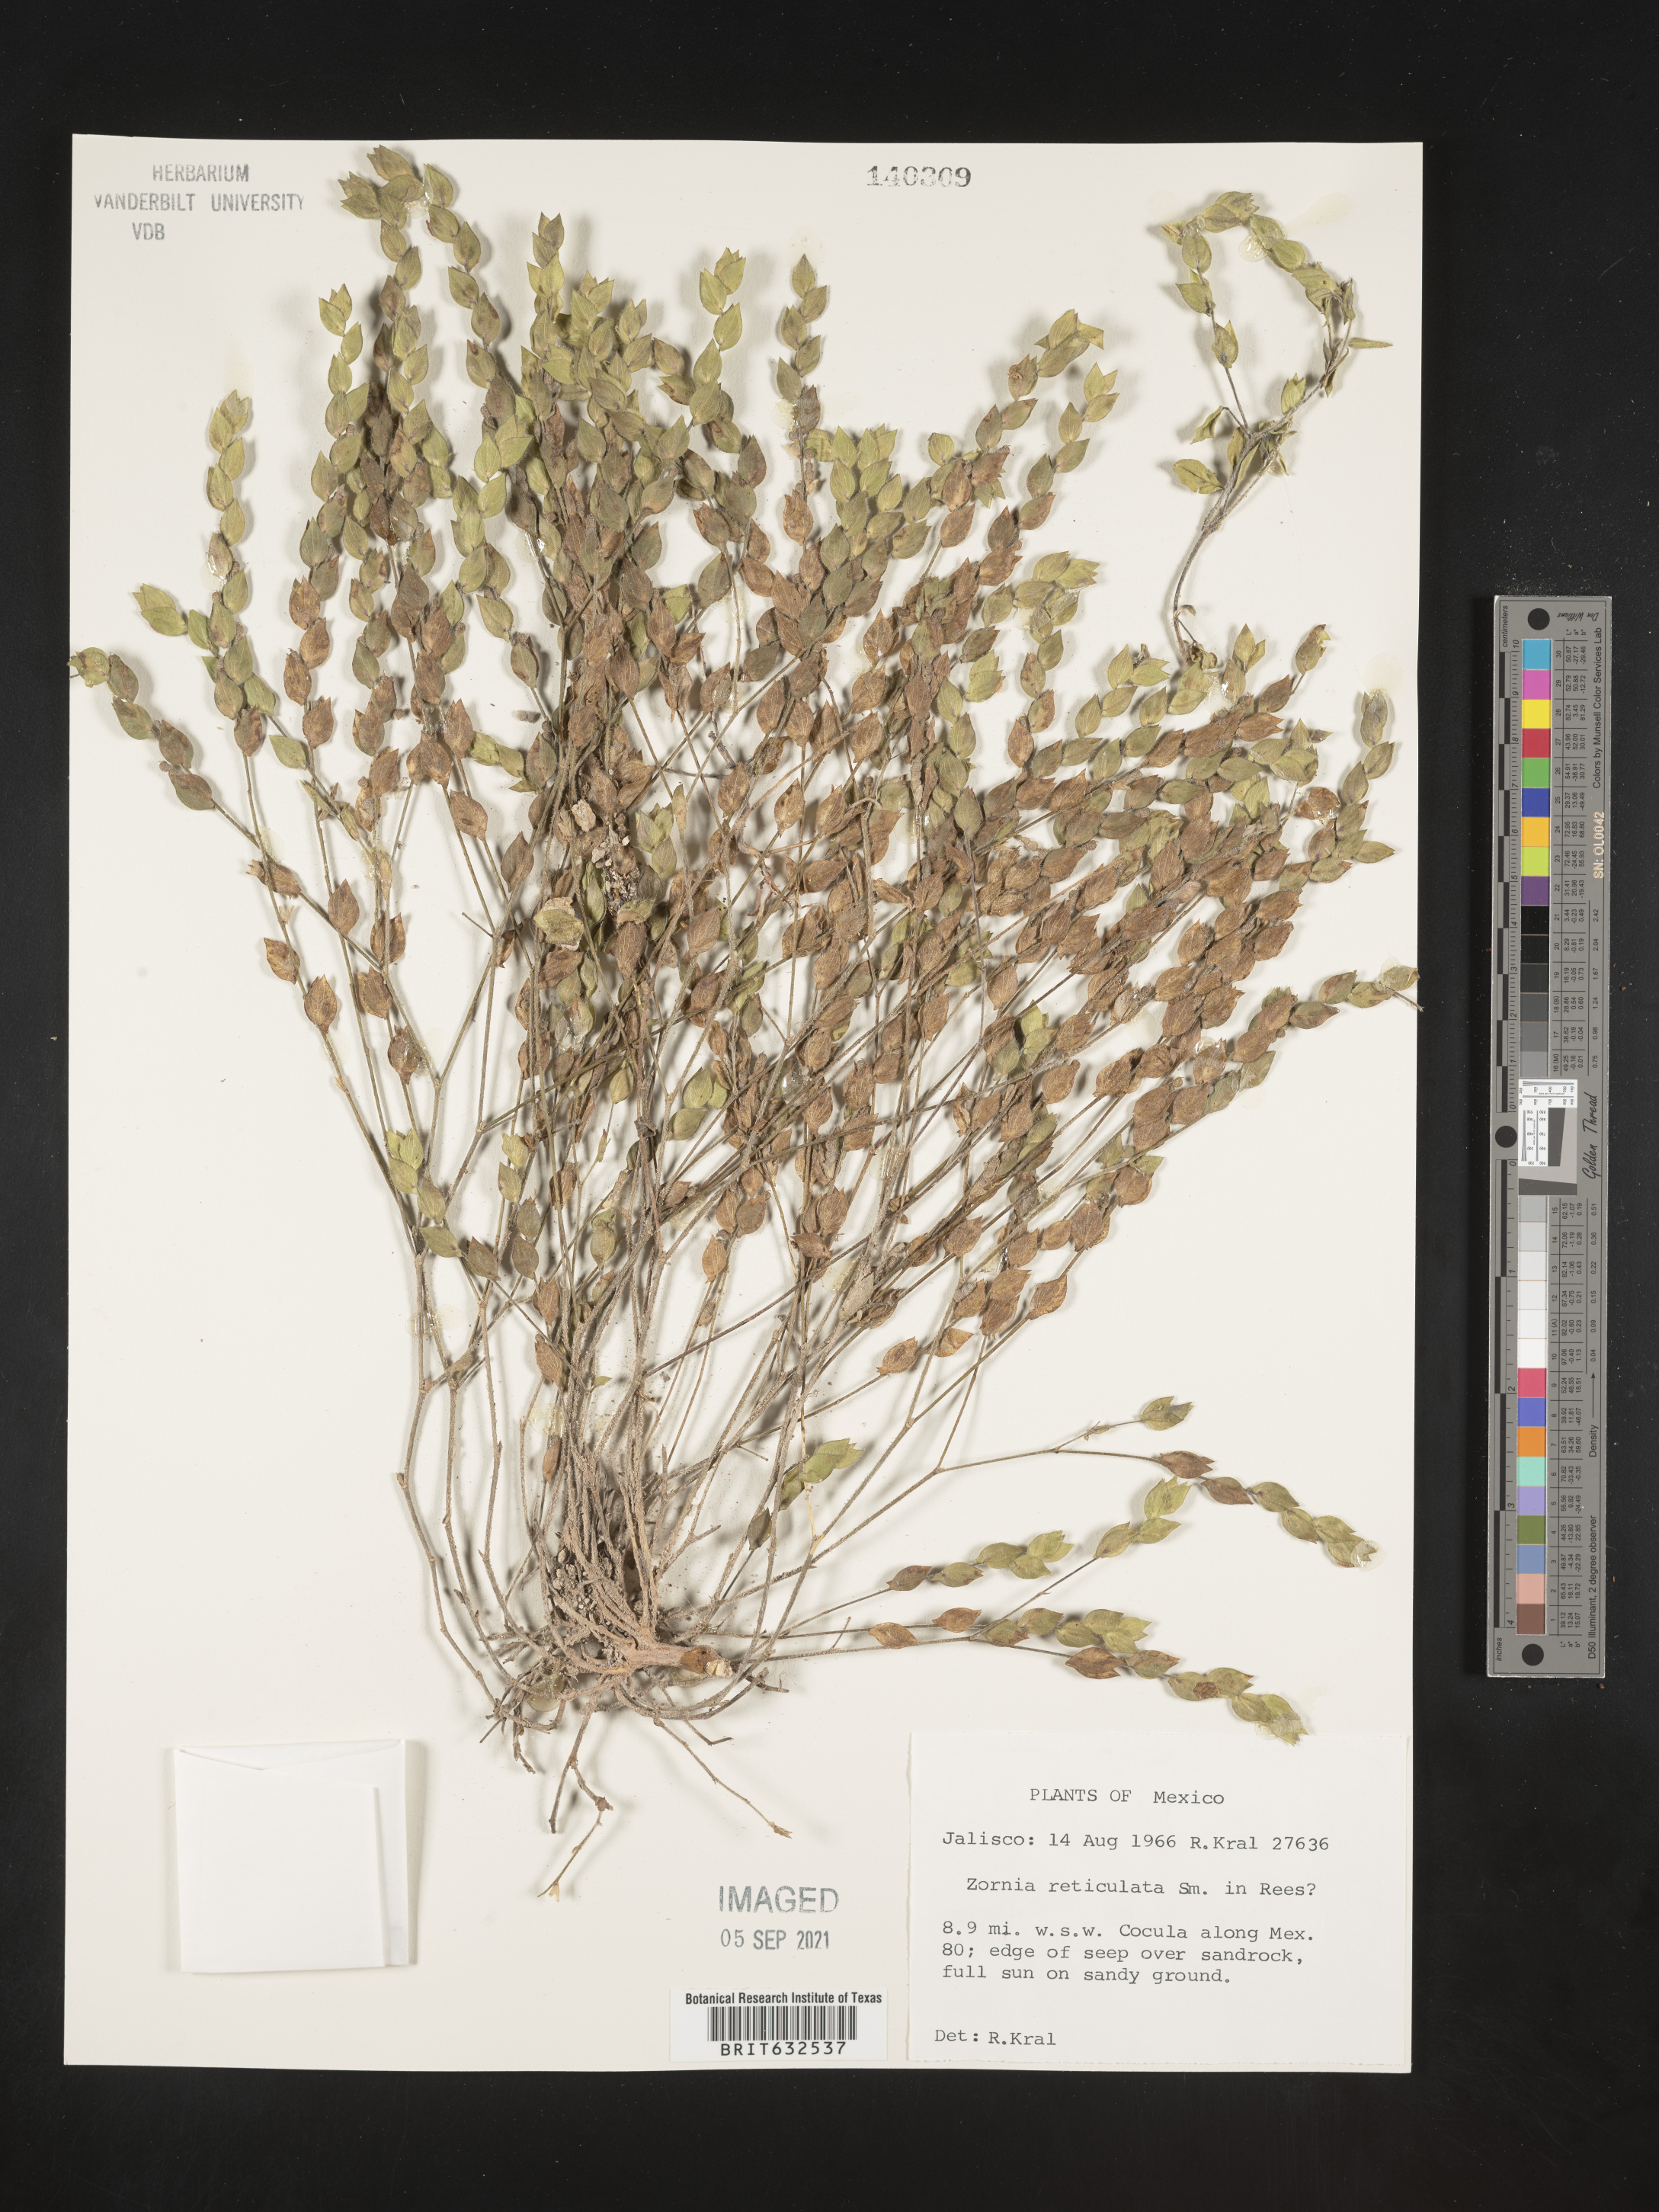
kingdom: Plantae
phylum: Tracheophyta
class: Magnoliopsida
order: Fabales
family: Fabaceae
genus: Zornia
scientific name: Zornia
